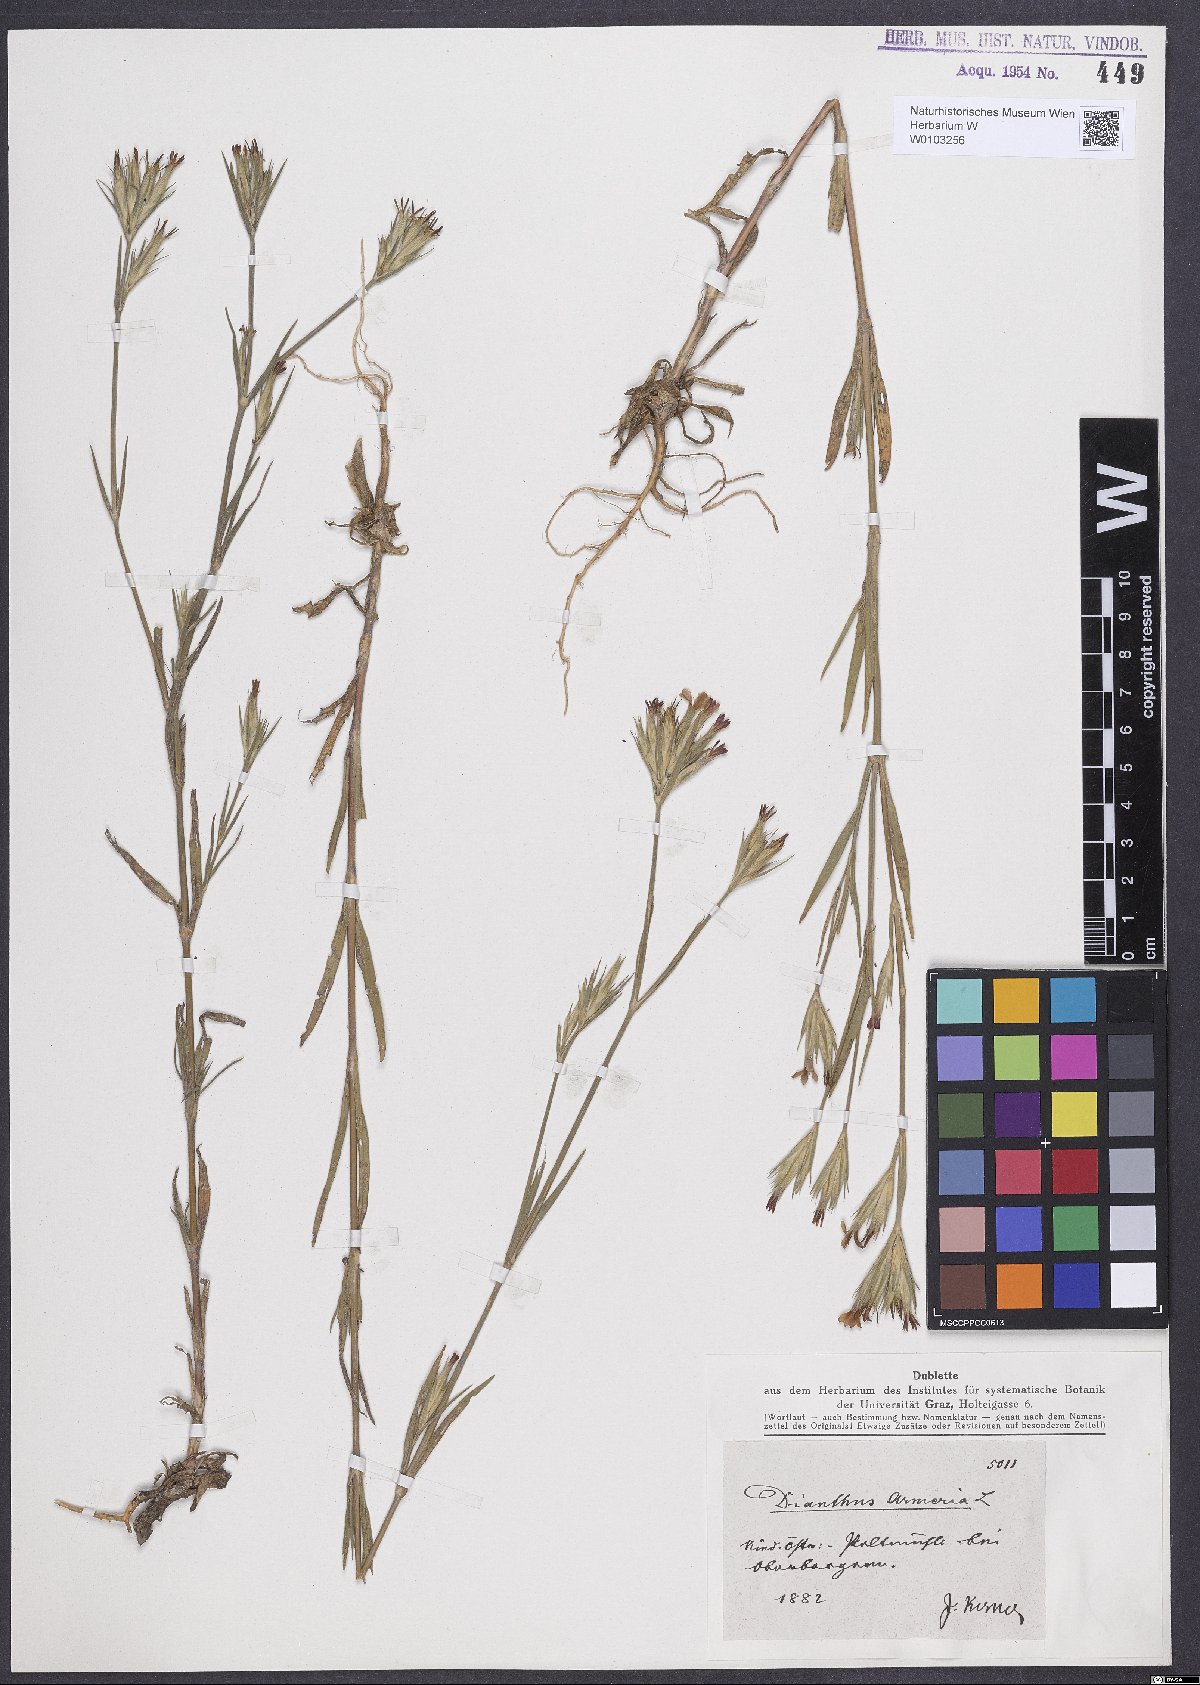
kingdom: Plantae
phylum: Tracheophyta
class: Magnoliopsida
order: Caryophyllales
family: Caryophyllaceae
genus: Dianthus
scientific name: Dianthus armeria
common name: Deptford pink
